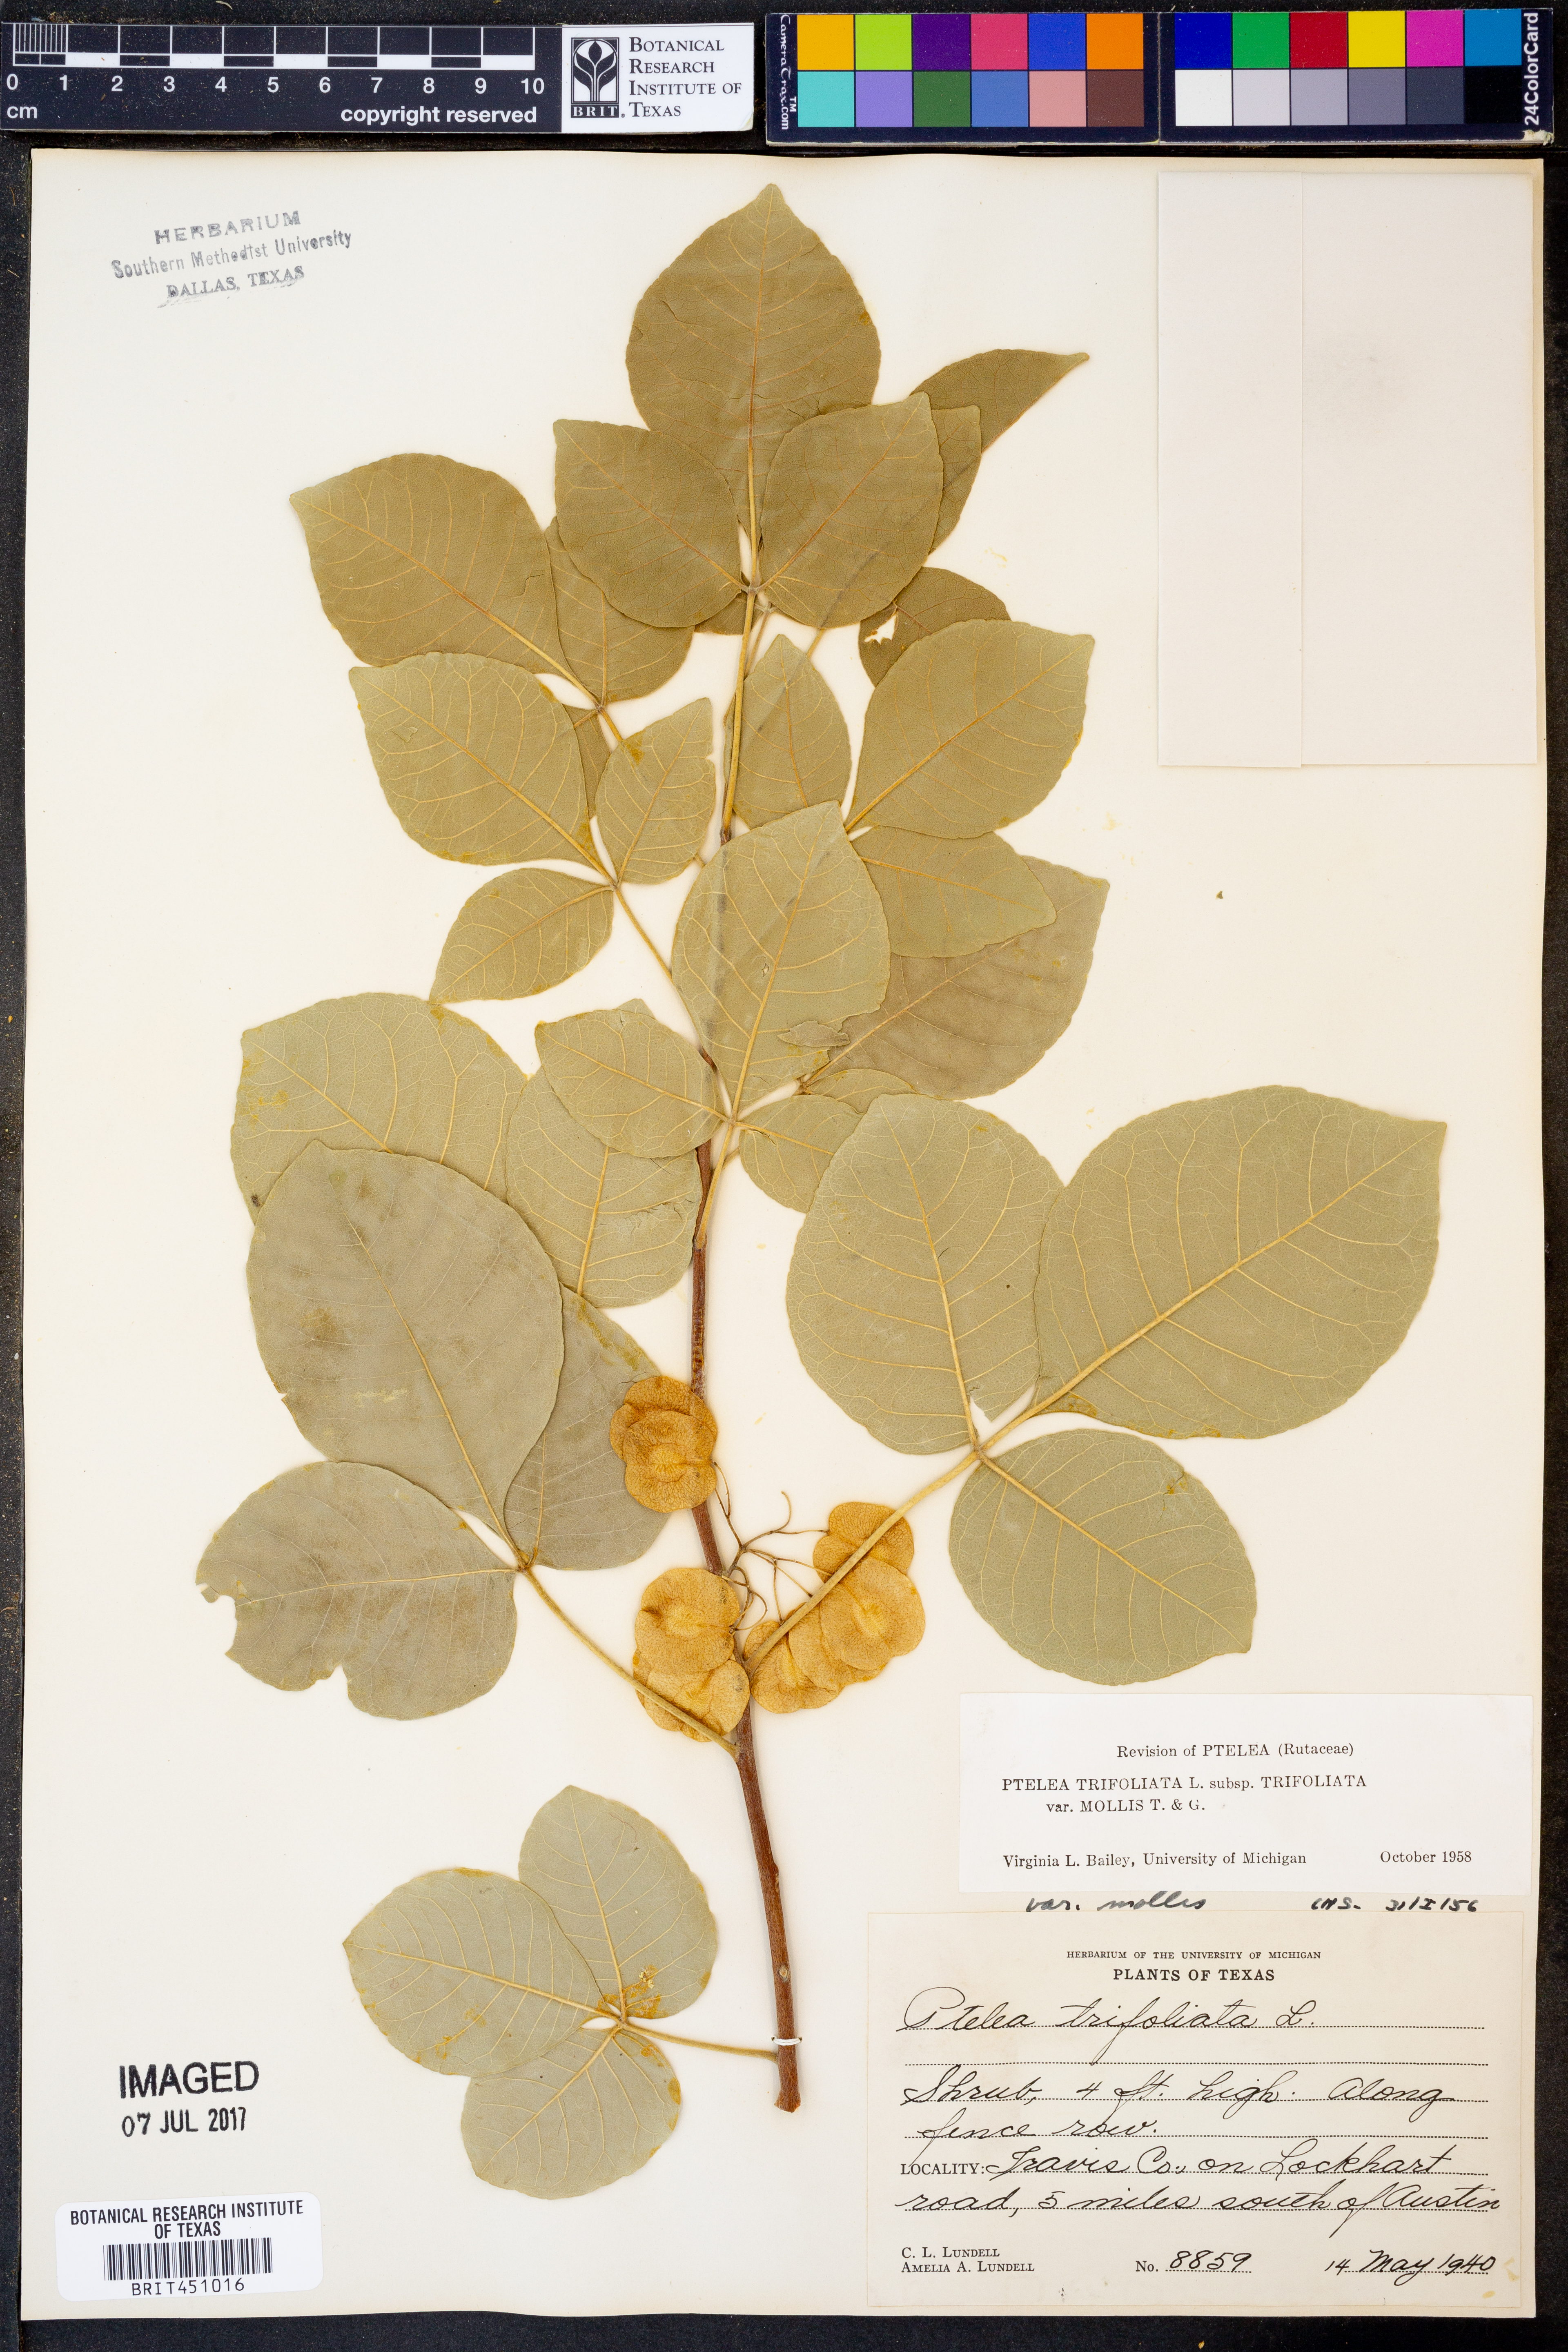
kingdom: Plantae
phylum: Tracheophyta
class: Magnoliopsida
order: Sapindales
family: Rutaceae
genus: Ptelea
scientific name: Ptelea trifoliata
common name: Common hop-tree
